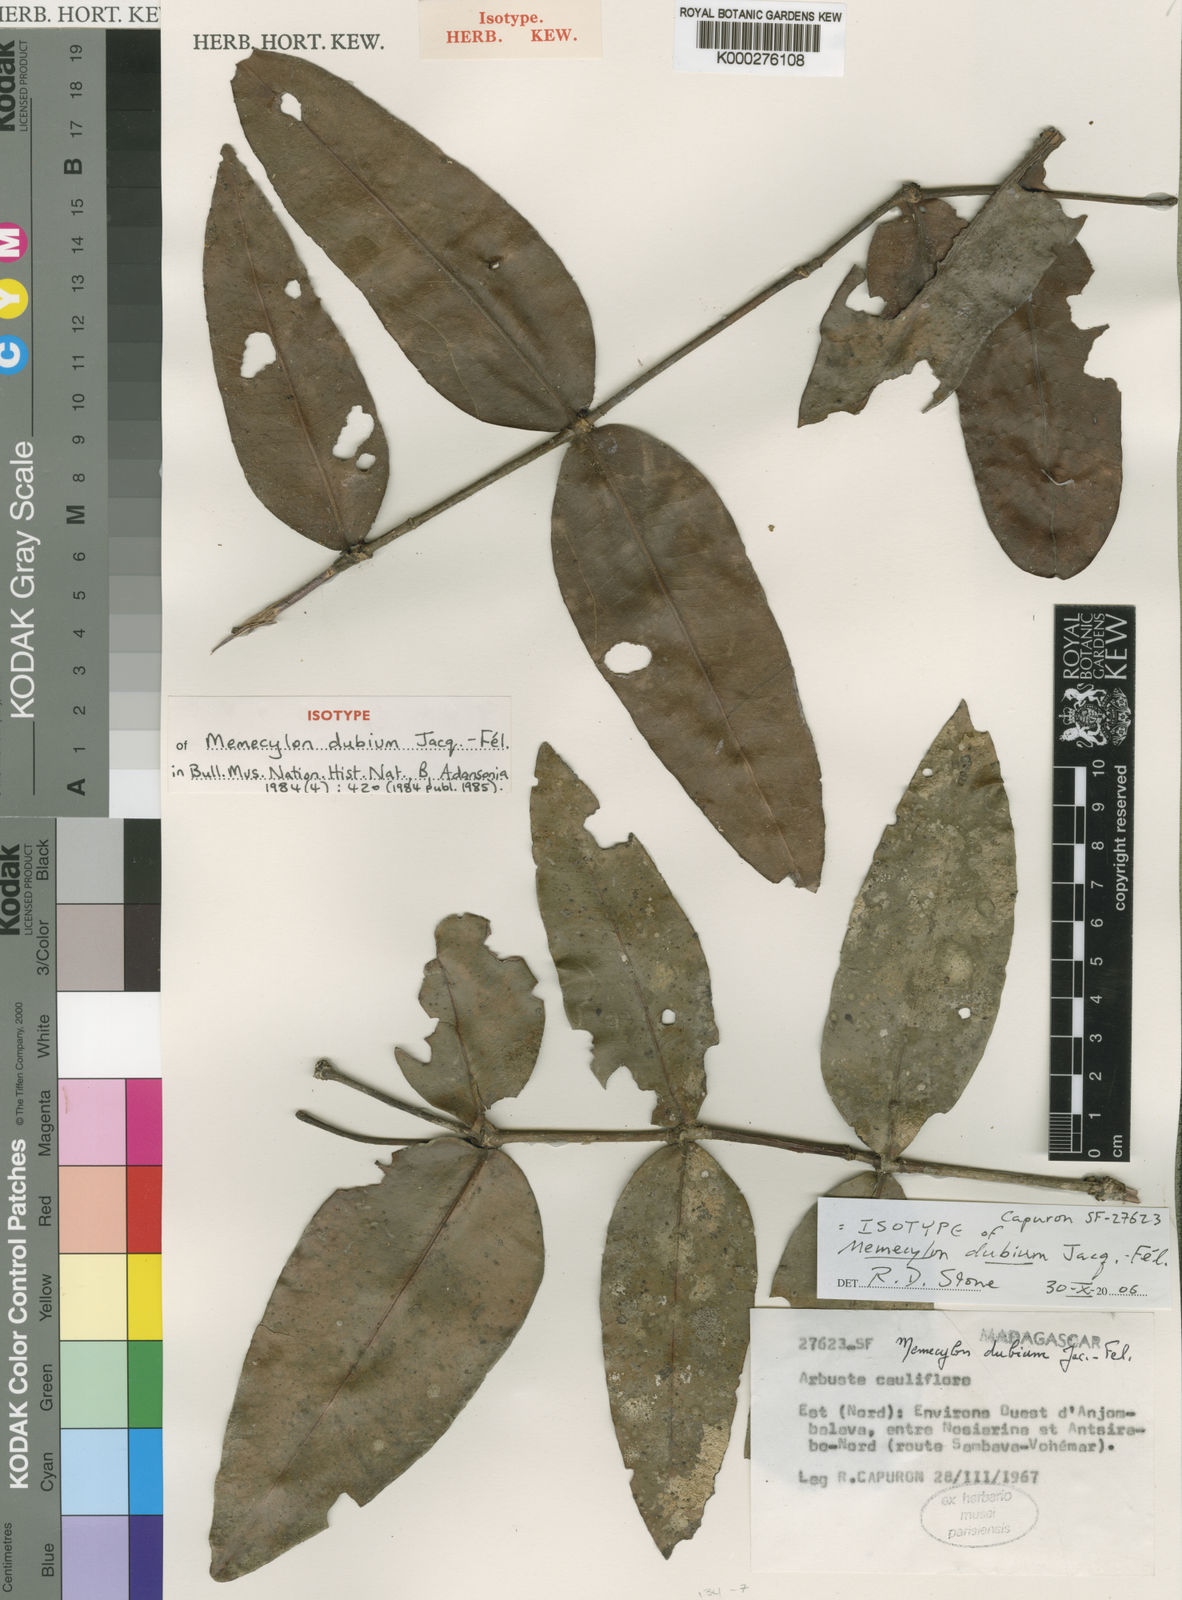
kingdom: Plantae
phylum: Tracheophyta
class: Magnoliopsida
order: Myrtales
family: Melastomataceae
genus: Memecylon
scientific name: Memecylon
